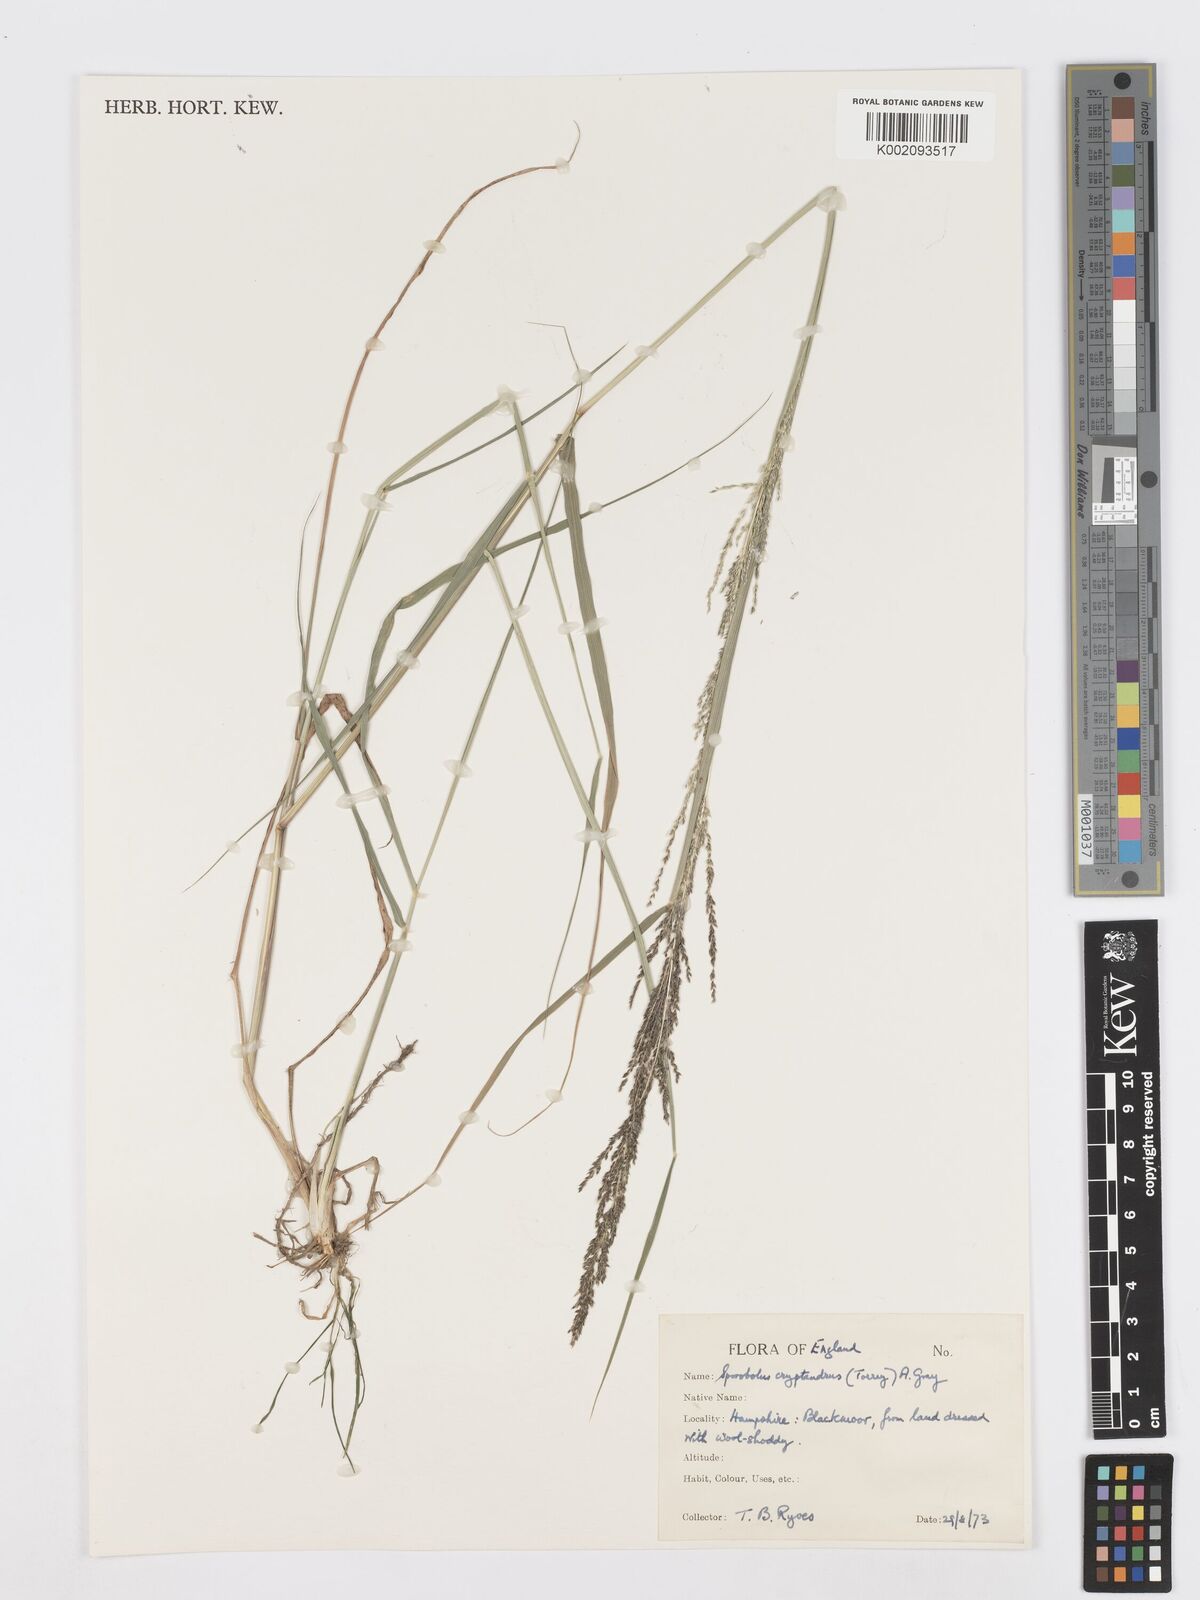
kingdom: Plantae
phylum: Tracheophyta
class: Liliopsida
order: Poales
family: Poaceae
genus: Sporobolus
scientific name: Sporobolus cryptandrus
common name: Sand dropseed
